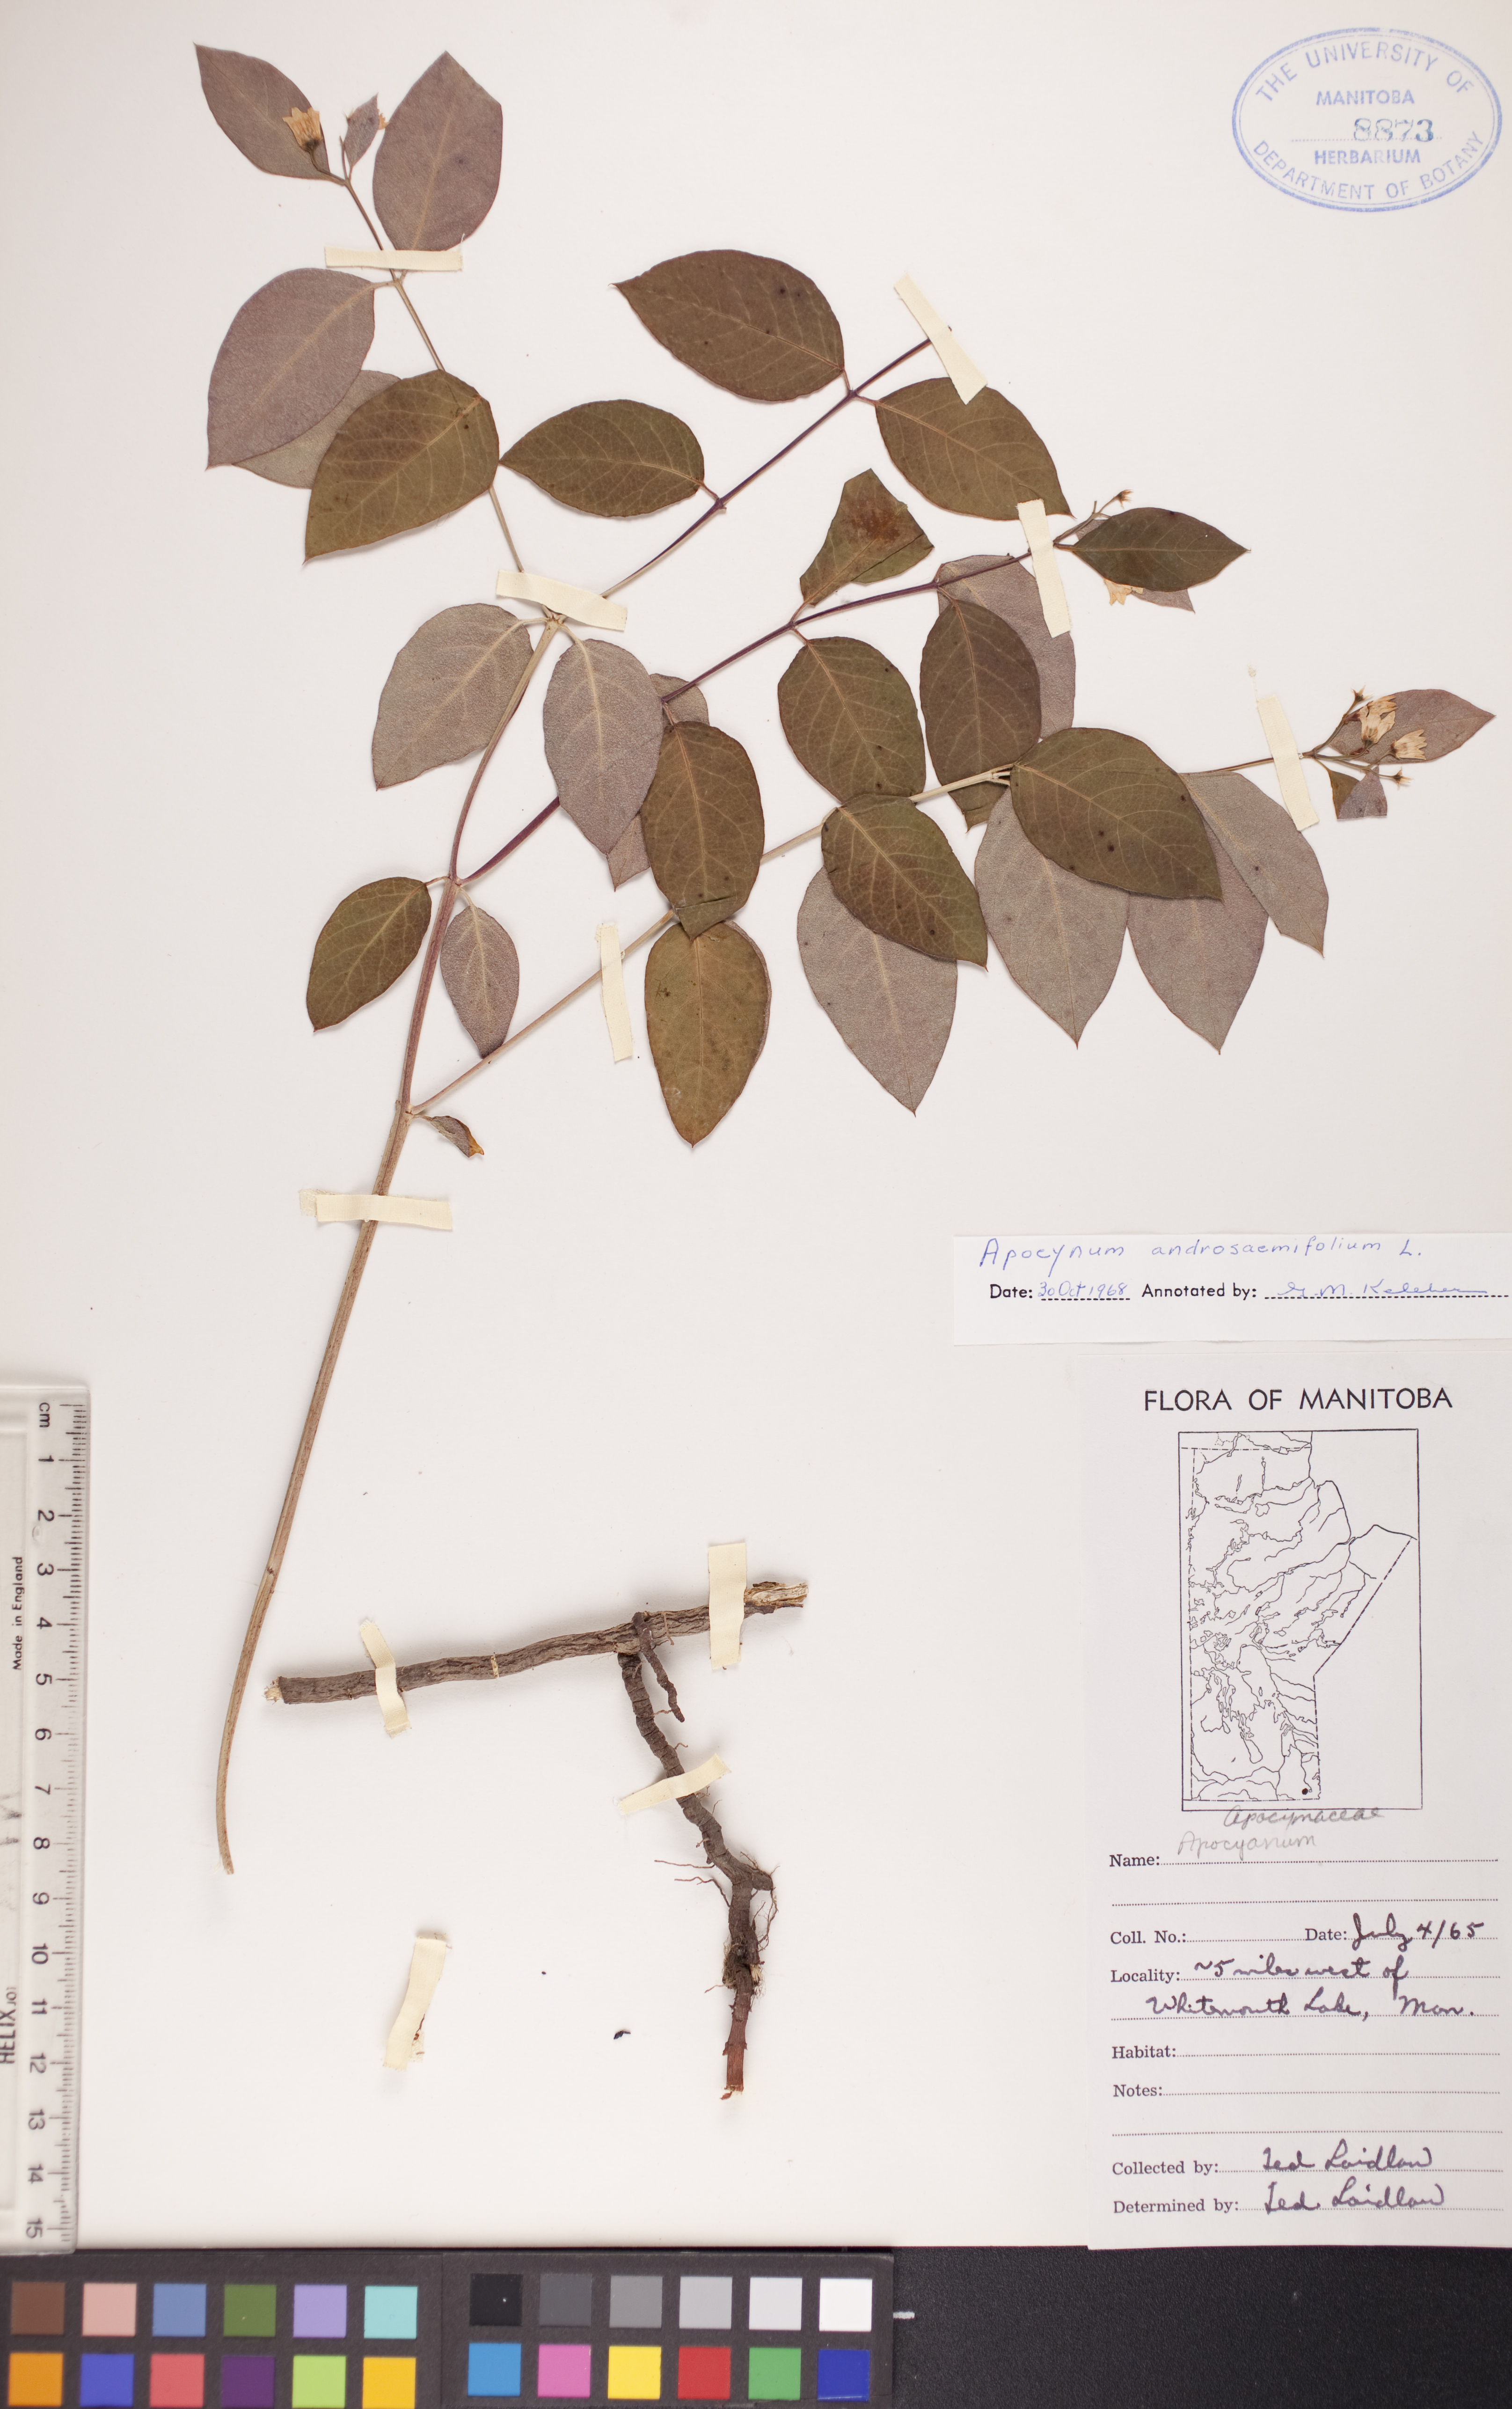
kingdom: Plantae
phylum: Tracheophyta
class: Magnoliopsida
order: Gentianales
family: Apocynaceae
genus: Apocynum
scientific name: Apocynum androsaemifolium
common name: Spreading dogbane
